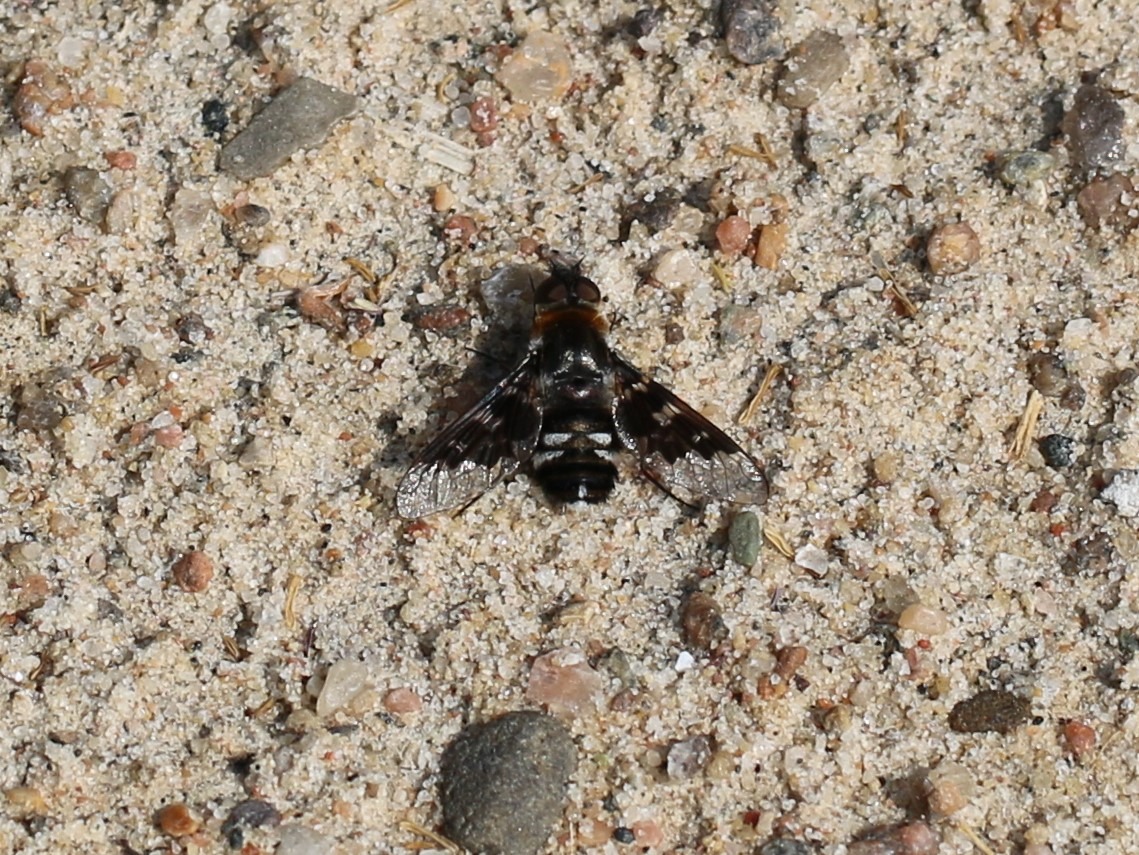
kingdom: Animalia
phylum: Arthropoda
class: Insecta
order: Diptera
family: Bombyliidae
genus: Thyridanthrax
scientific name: Thyridanthrax fenestratus
